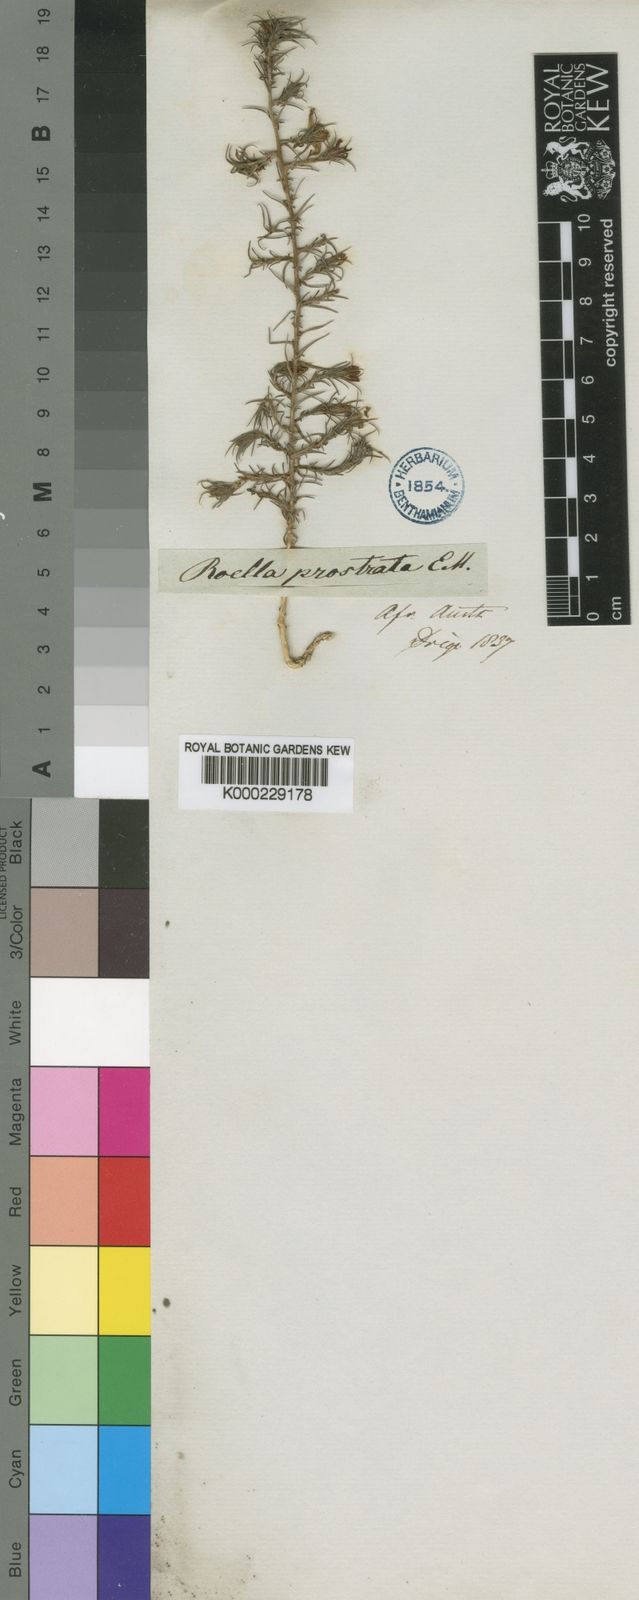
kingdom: Plantae
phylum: Tracheophyta
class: Magnoliopsida
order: Asterales
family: Asteraceae
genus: Cullumia
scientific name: Cullumia reticulata
